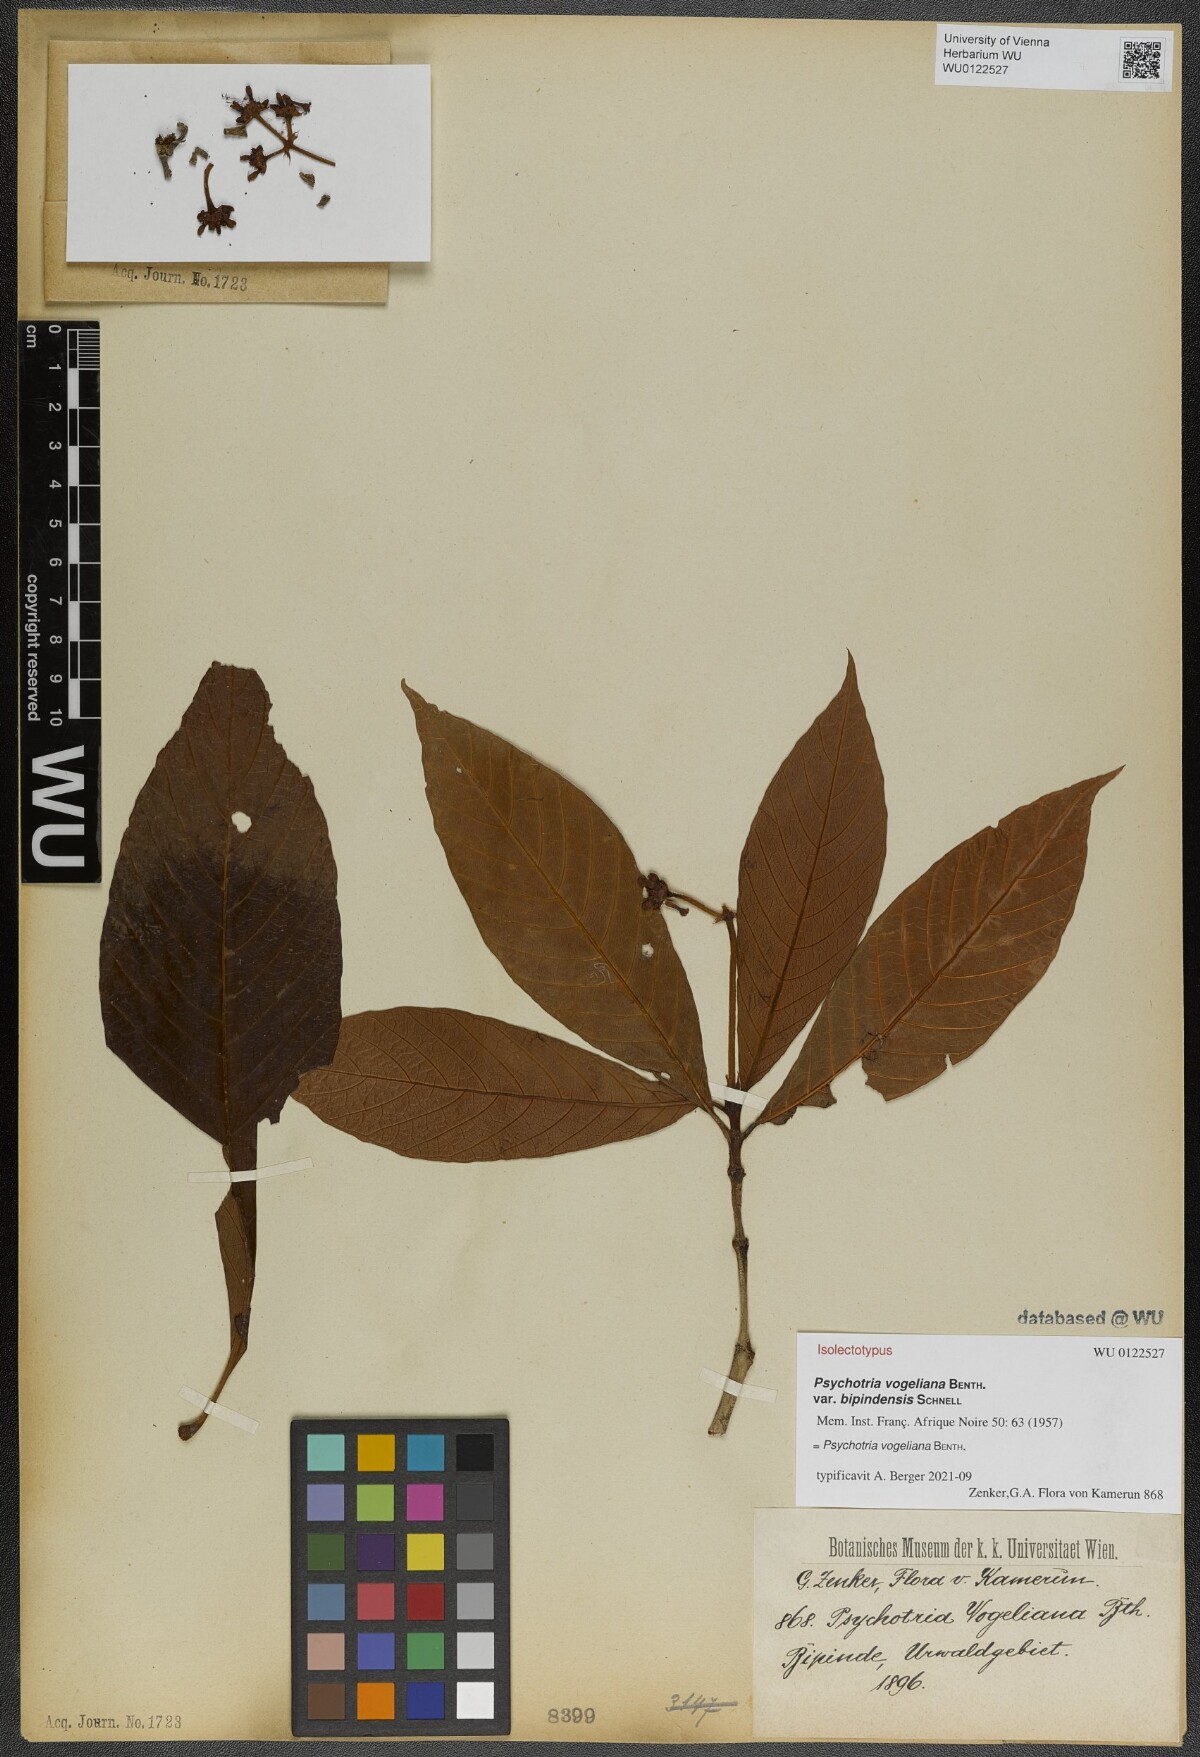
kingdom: Plantae
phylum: Tracheophyta
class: Magnoliopsida
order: Gentianales
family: Rubiaceae
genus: Psychotria
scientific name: Psychotria vogeliana
